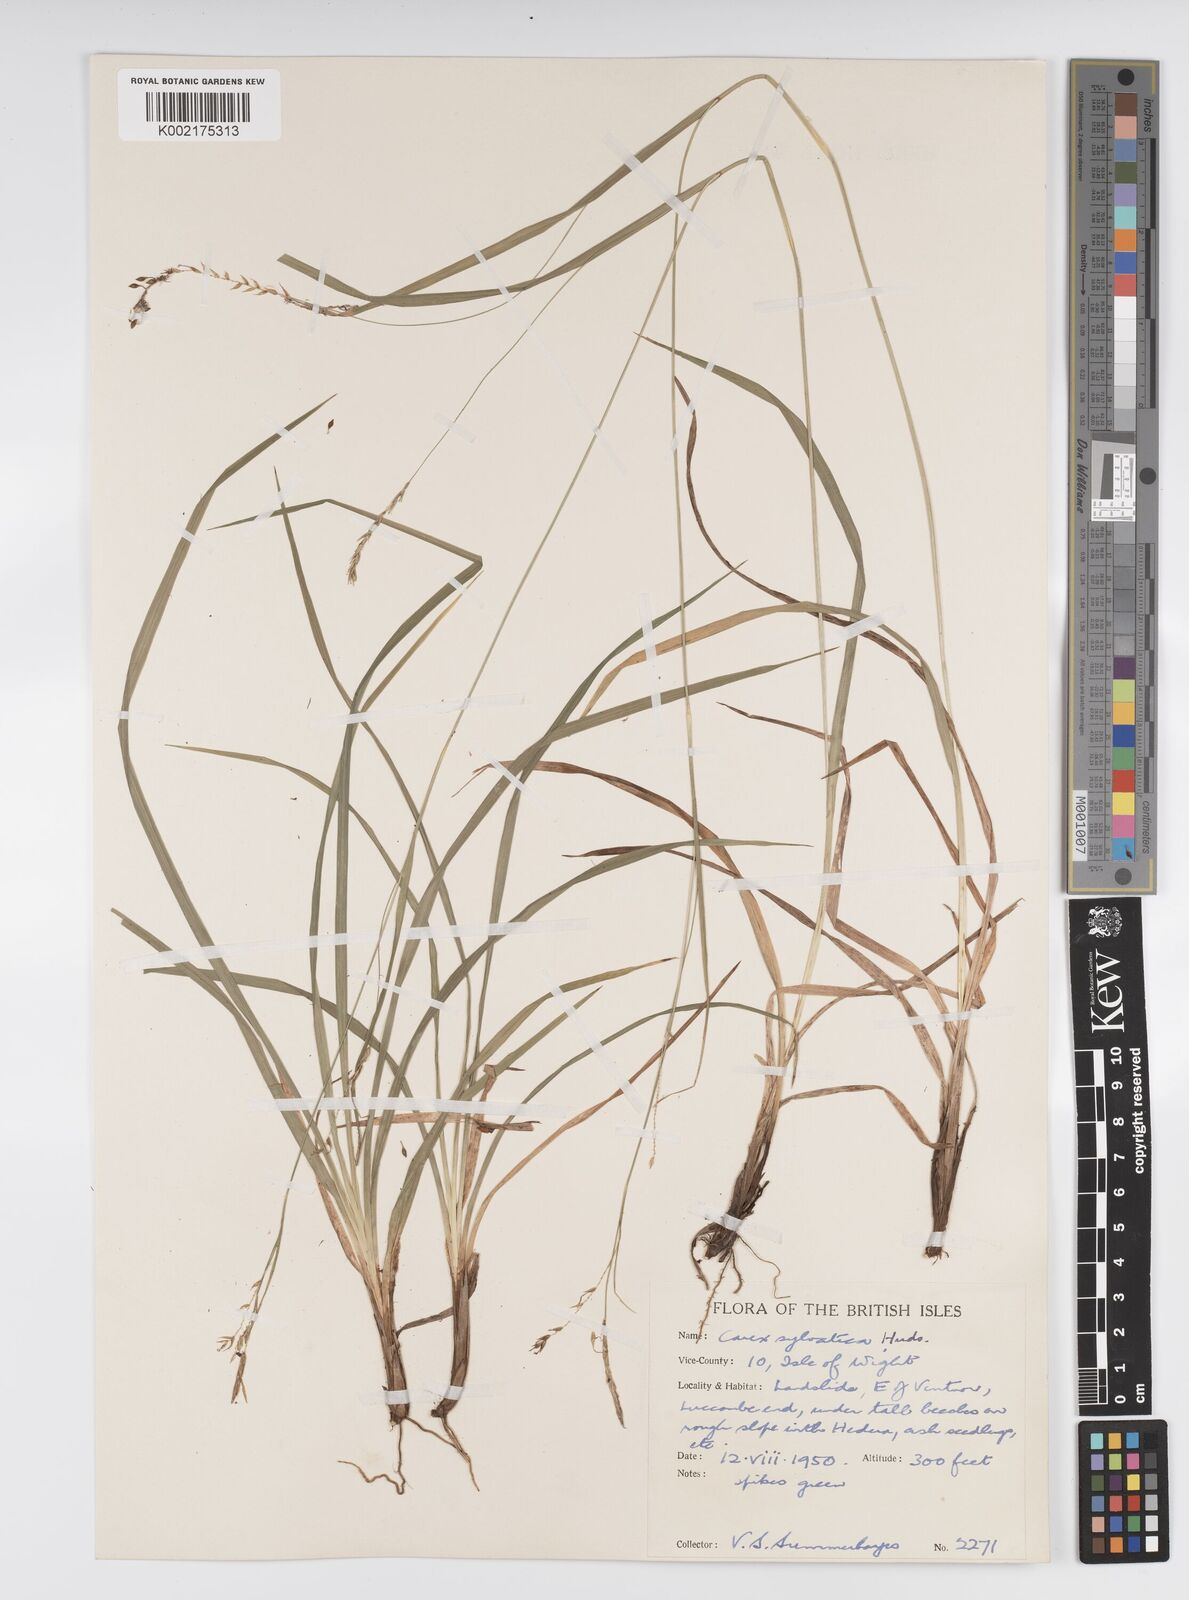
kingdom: Plantae
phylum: Tracheophyta
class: Liliopsida
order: Poales
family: Cyperaceae
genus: Carex
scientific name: Carex sylvatica
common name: Wood-sedge
